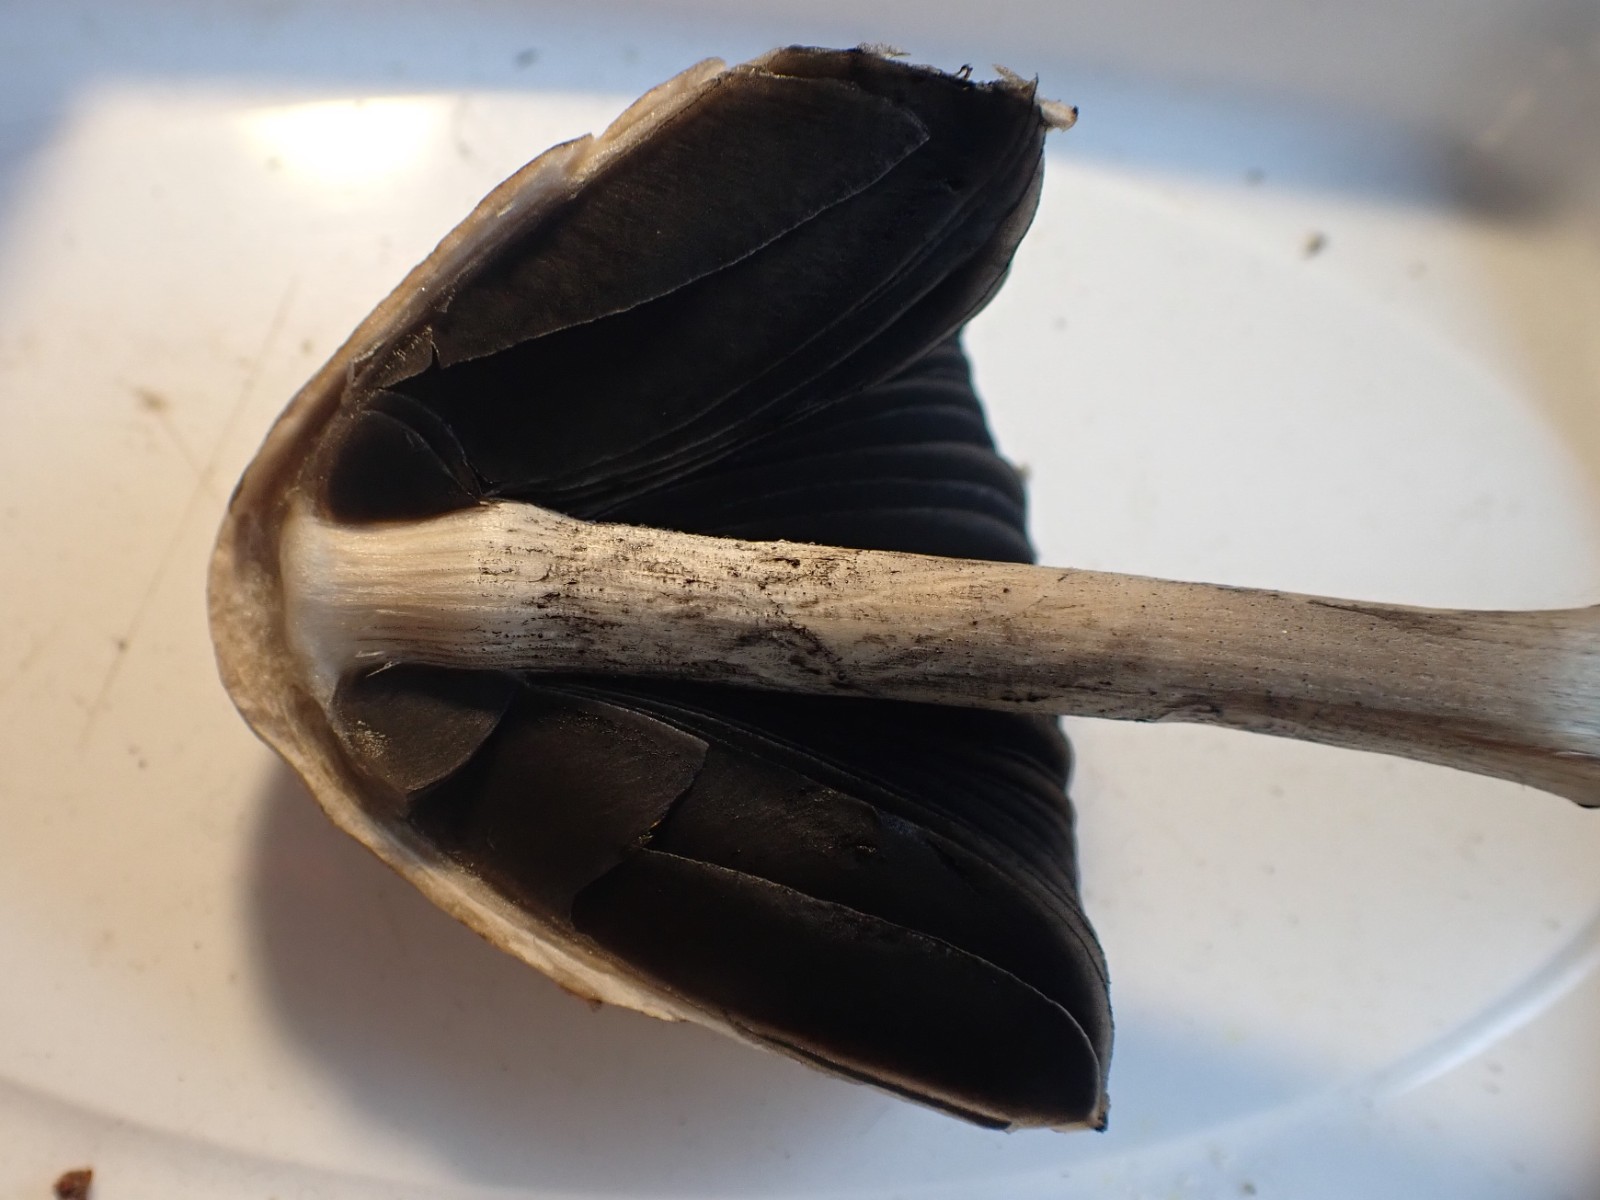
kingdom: Fungi
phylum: Basidiomycota
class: Agaricomycetes
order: Agaricales
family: Bolbitiaceae
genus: Panaeolus
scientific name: Panaeolus semiovatus
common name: ring-glanshat
